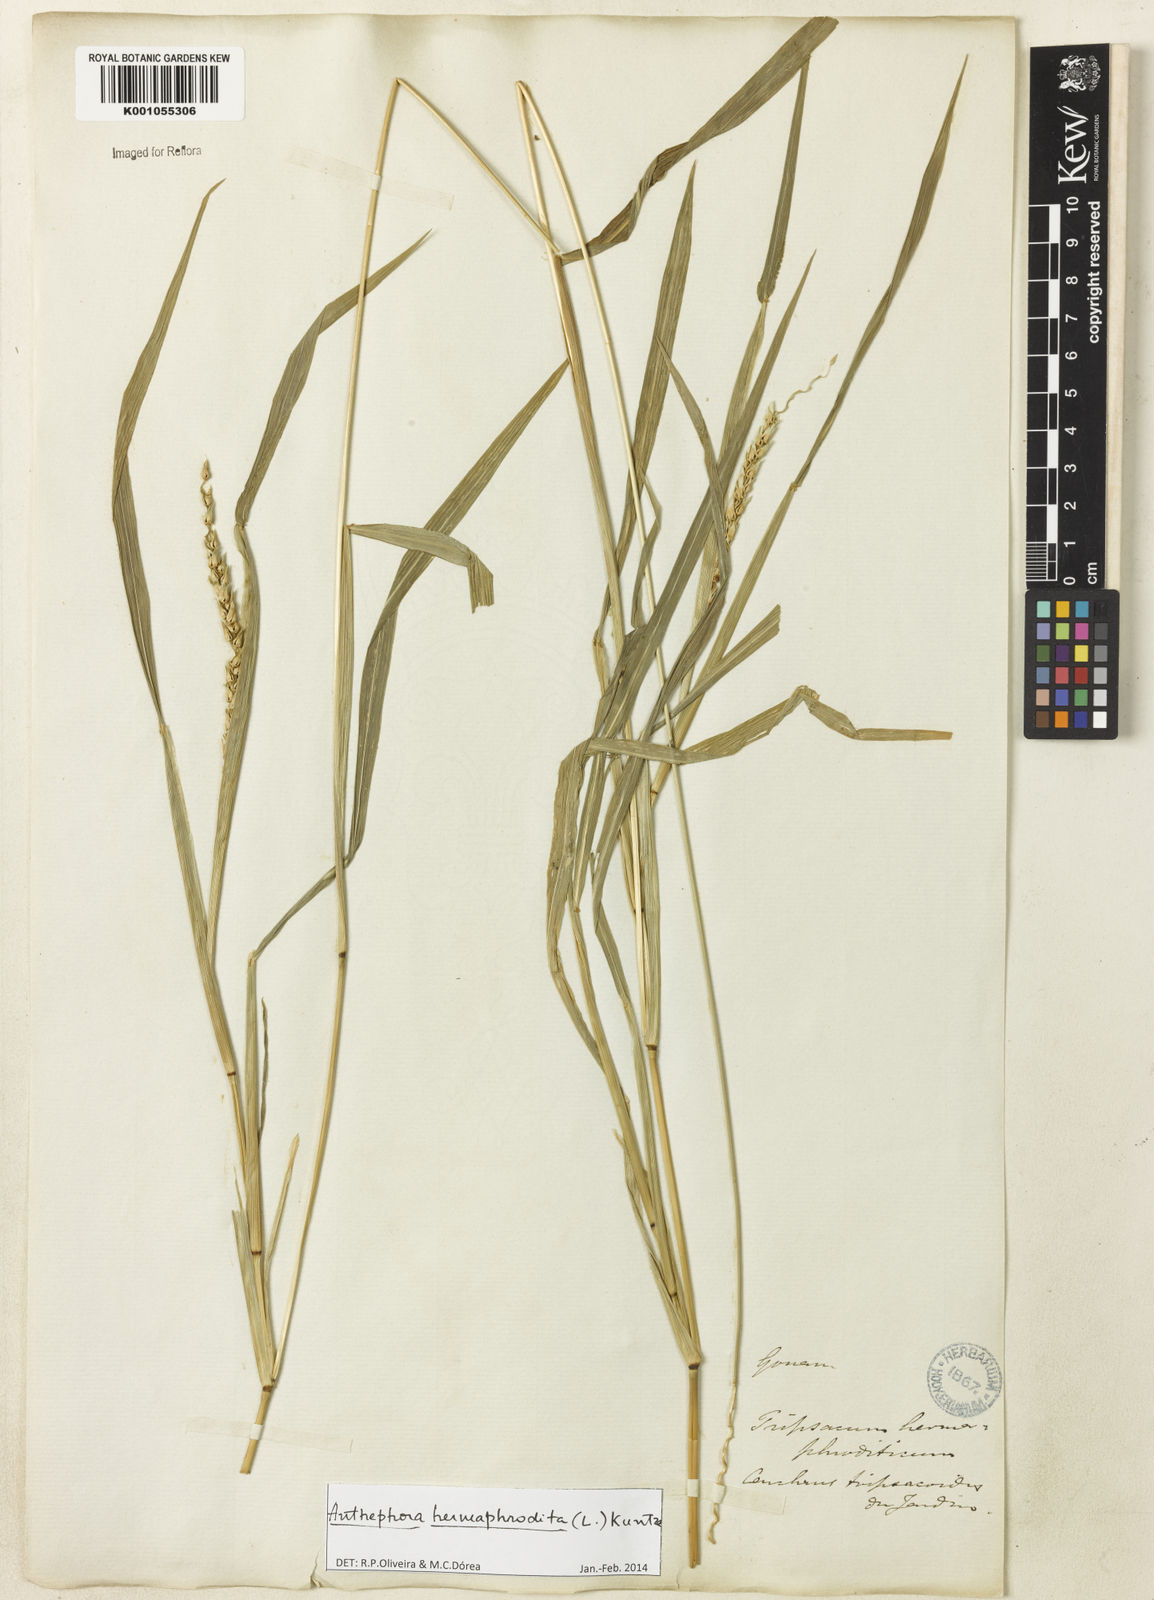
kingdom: Plantae
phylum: Tracheophyta
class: Liliopsida
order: Poales
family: Poaceae
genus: Anthephora
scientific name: Anthephora hermaphrodita
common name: Oldfield grass
